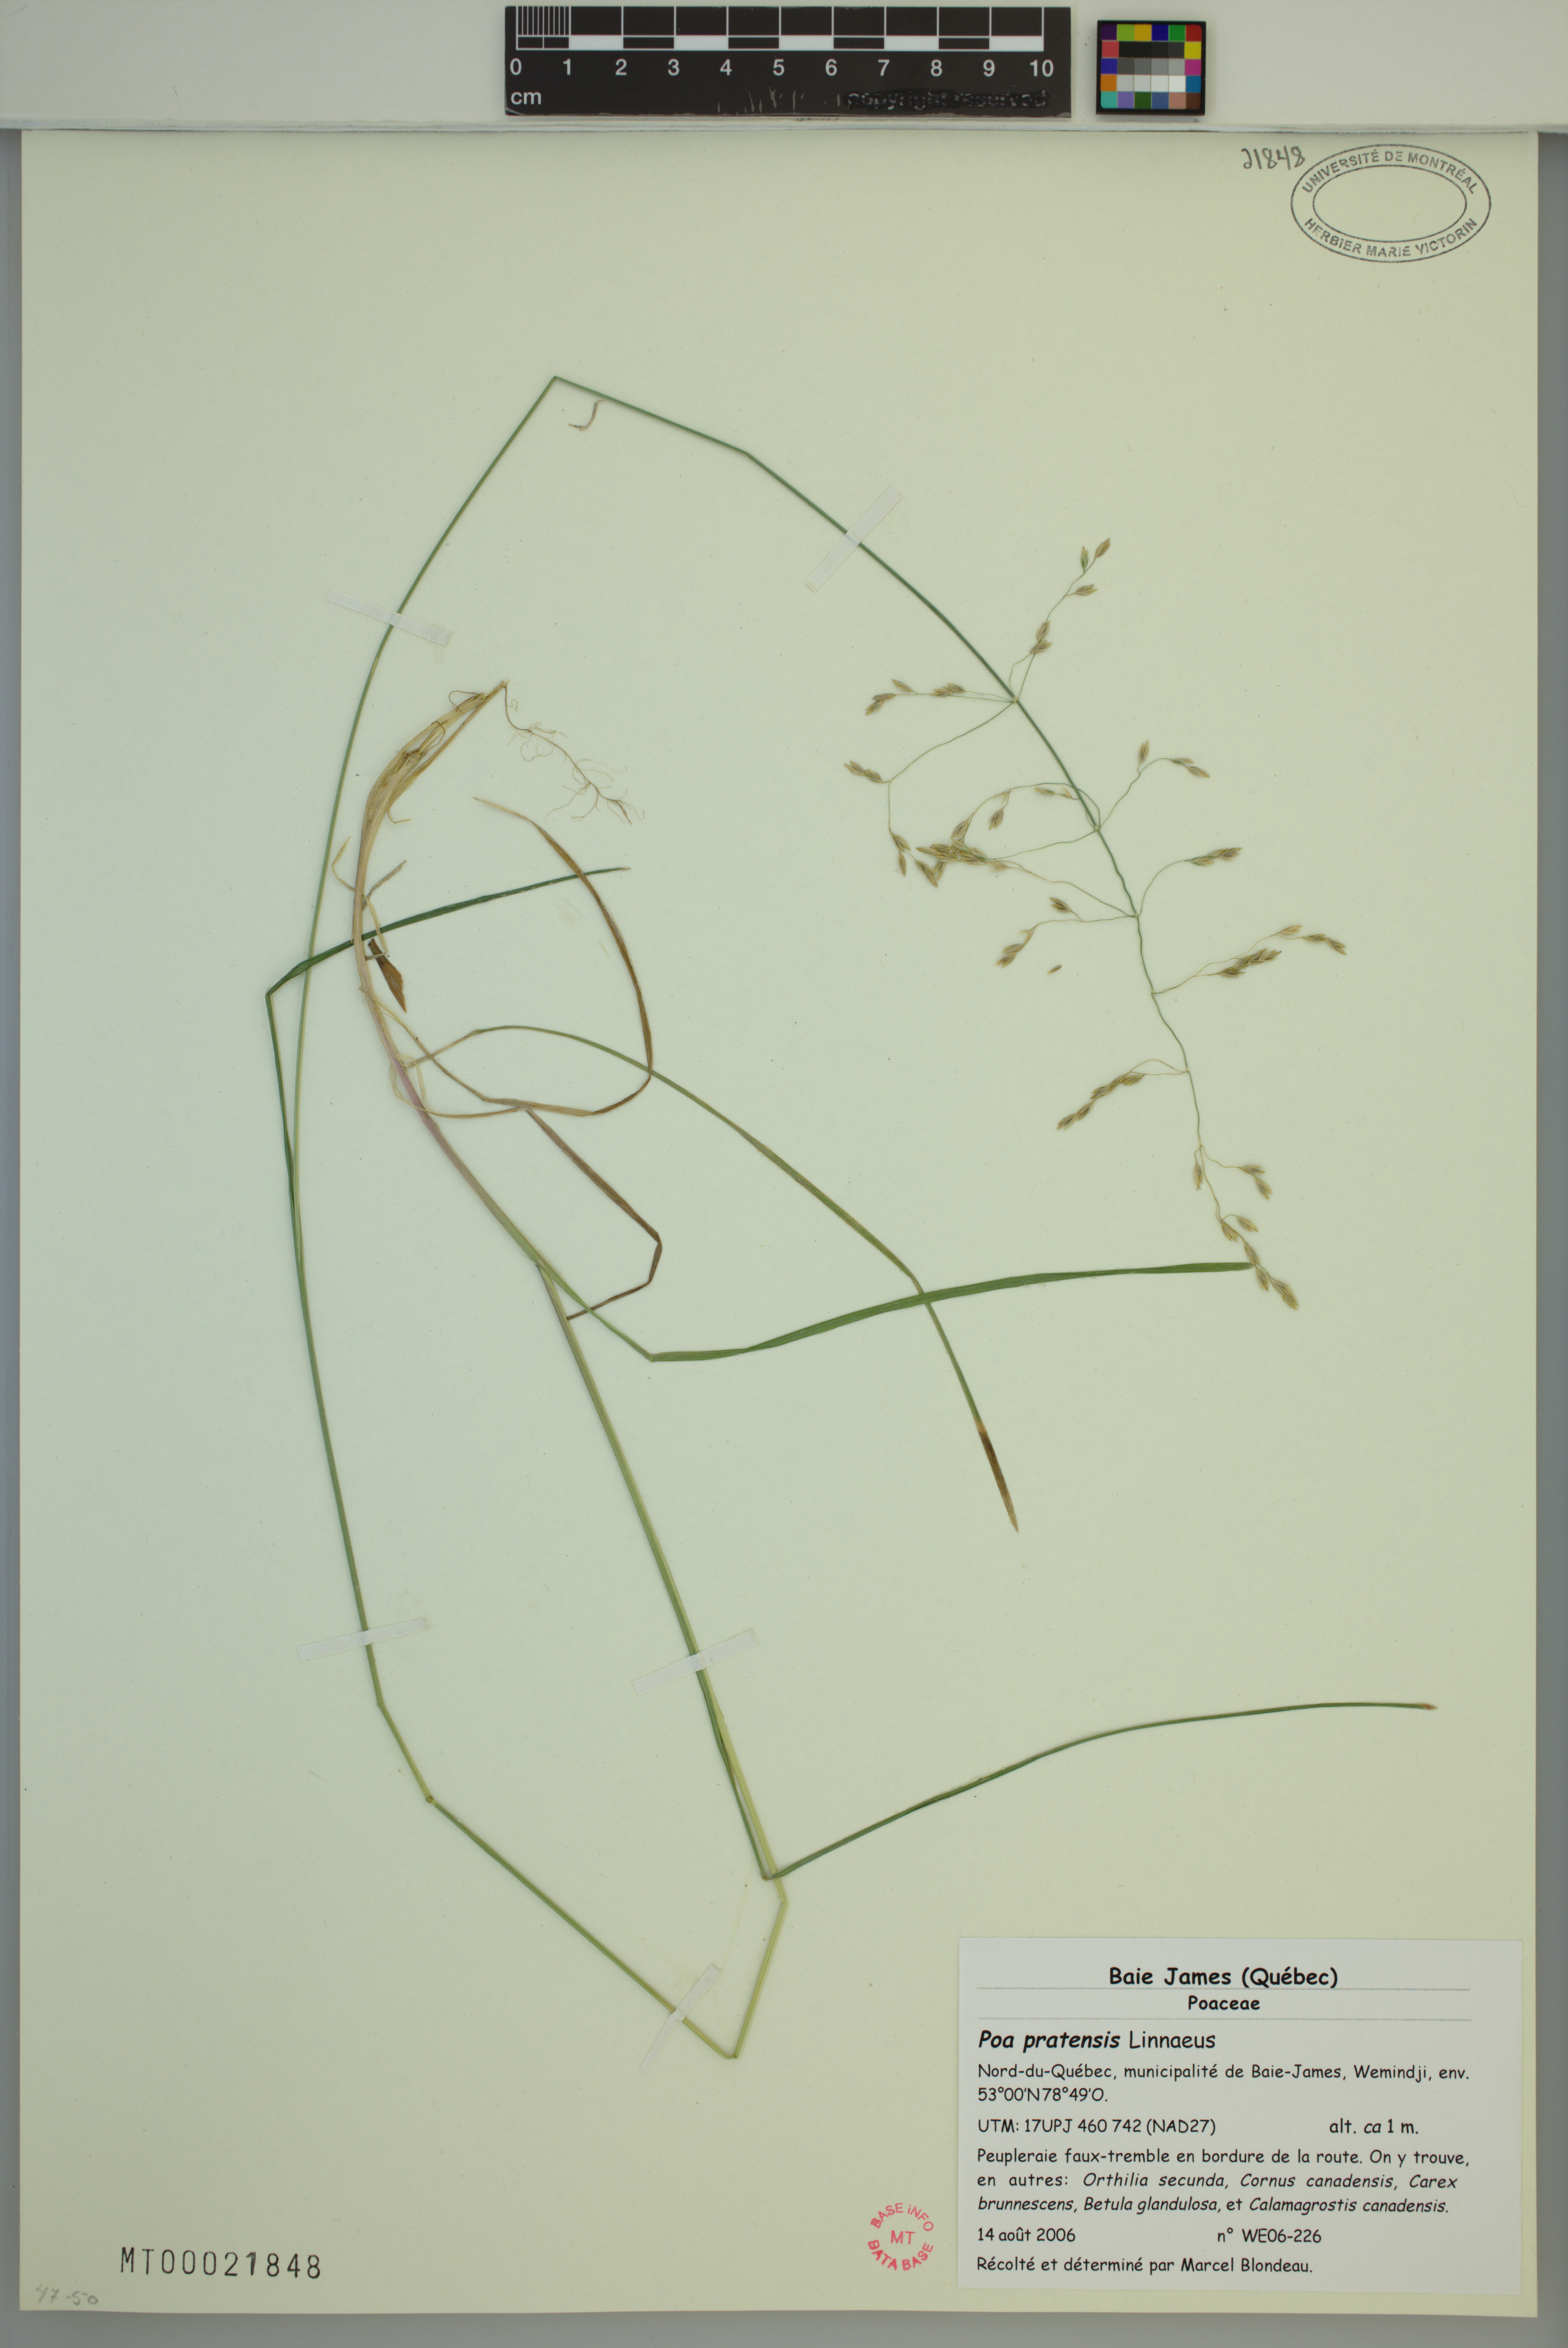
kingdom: Plantae
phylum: Tracheophyta
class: Liliopsida
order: Poales
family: Poaceae
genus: Poa
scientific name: Poa pratensis
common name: Kentucky bluegrass
